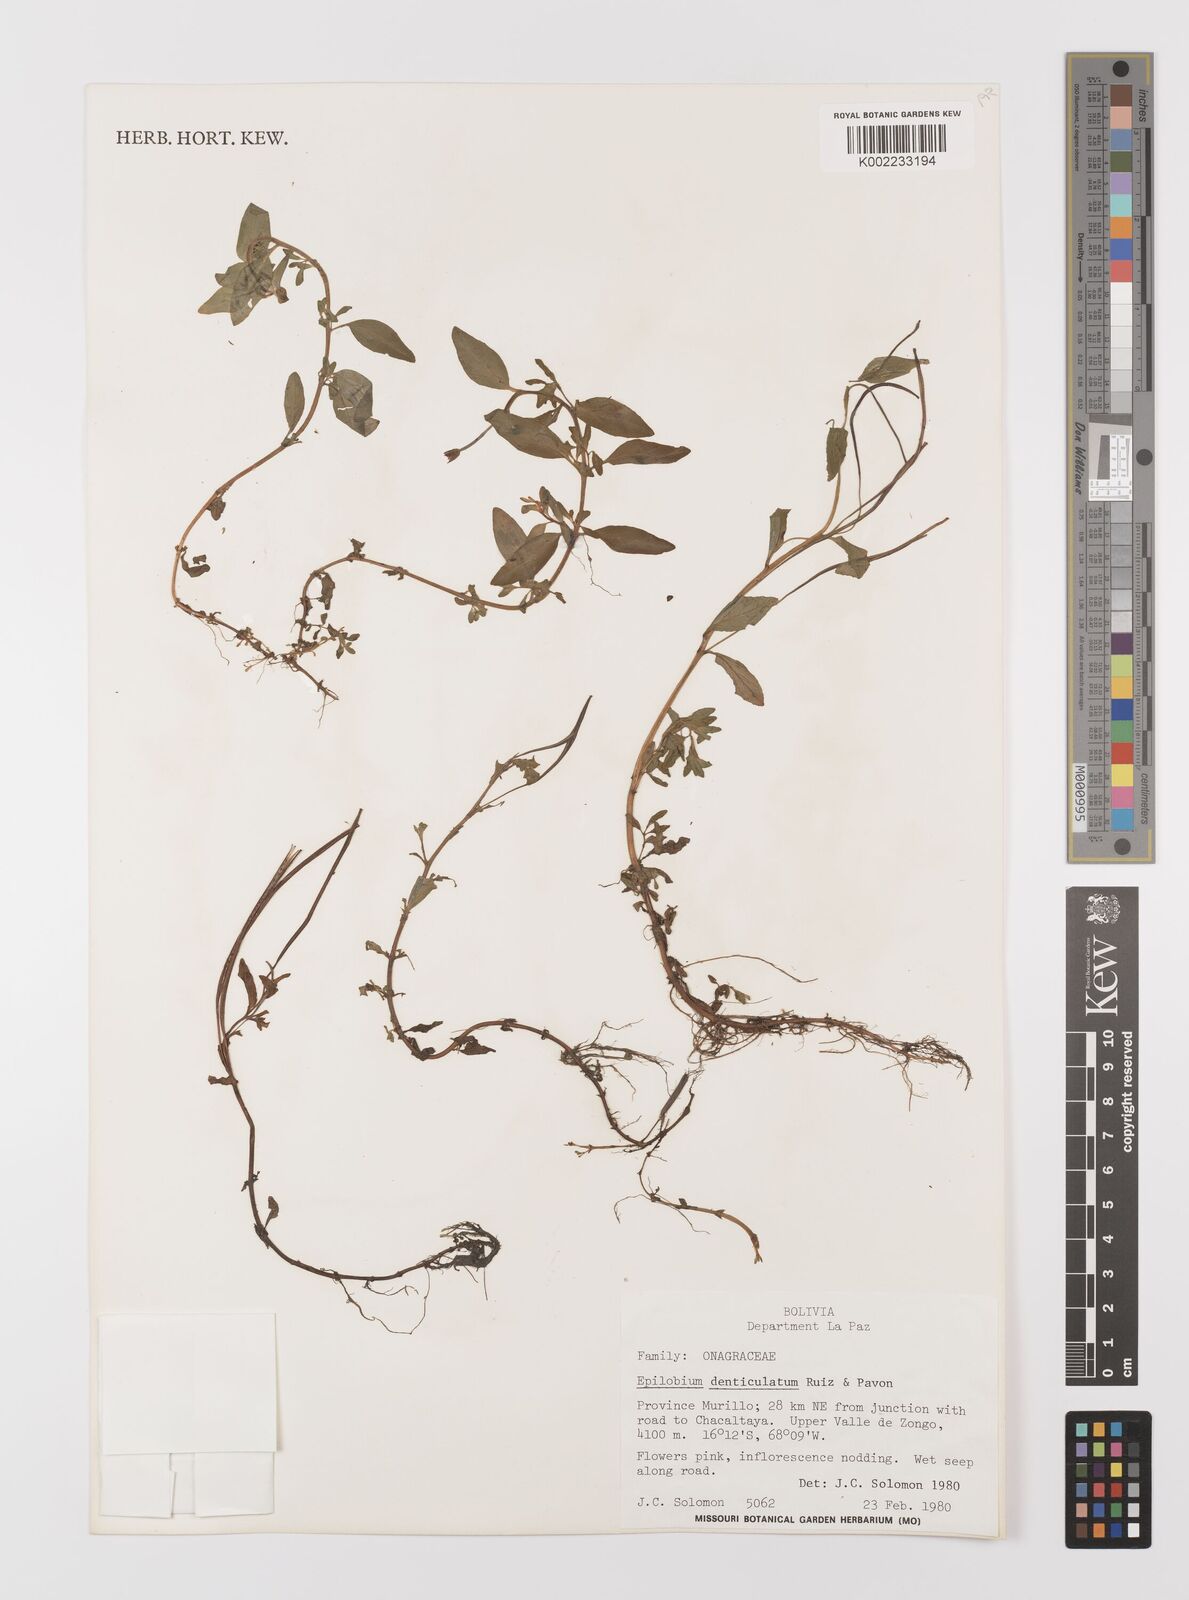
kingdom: Plantae
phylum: Tracheophyta
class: Magnoliopsida
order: Myrtales
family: Onagraceae
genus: Epilobium
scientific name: Epilobium denticulatum
